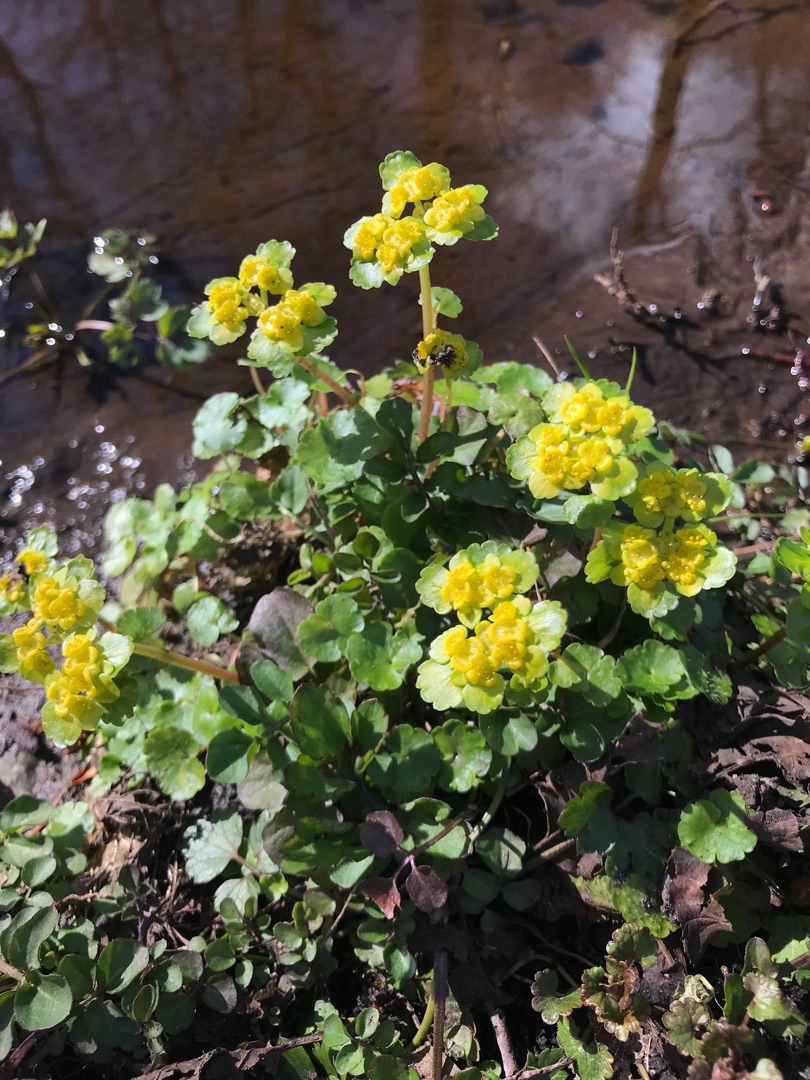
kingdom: Plantae
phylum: Tracheophyta
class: Magnoliopsida
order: Saxifragales
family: Saxifragaceae
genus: Chrysosplenium
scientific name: Chrysosplenium alternifolium
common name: Almindelig milturt
